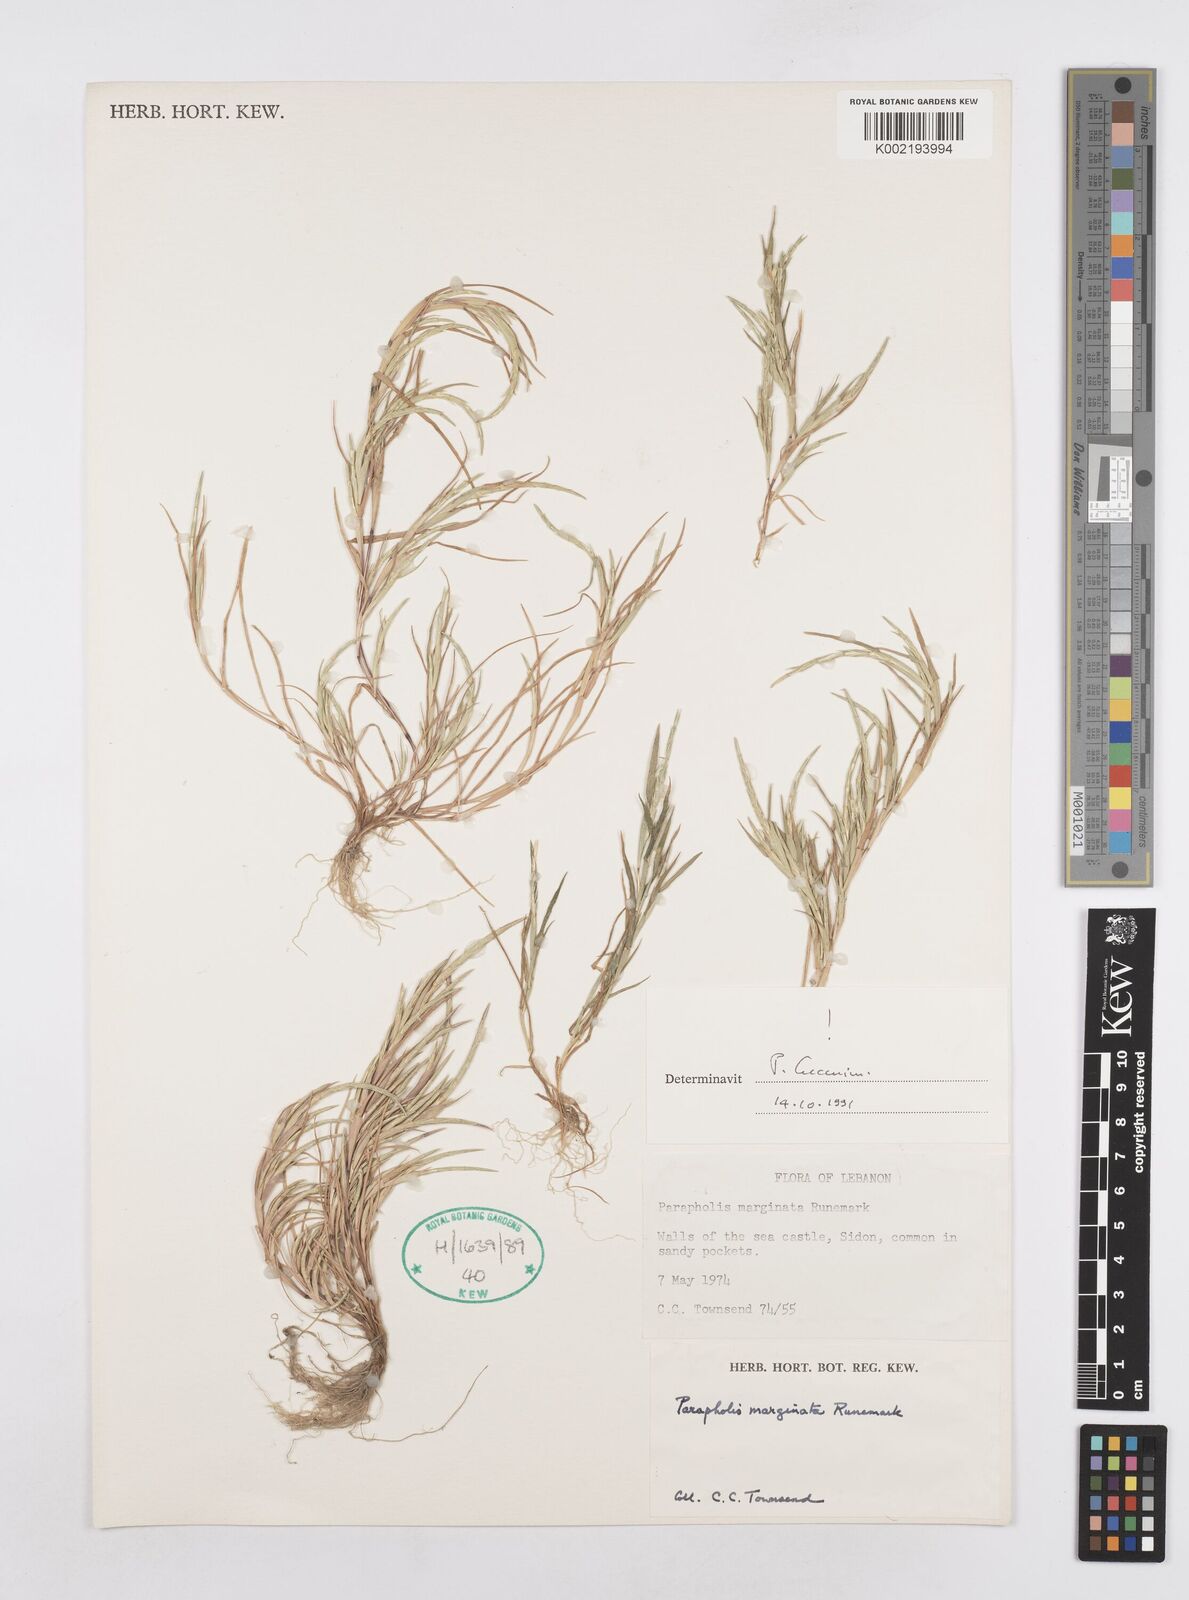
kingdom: Plantae
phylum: Tracheophyta
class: Liliopsida
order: Poales
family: Poaceae
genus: Parapholis
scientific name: Parapholis marginata
